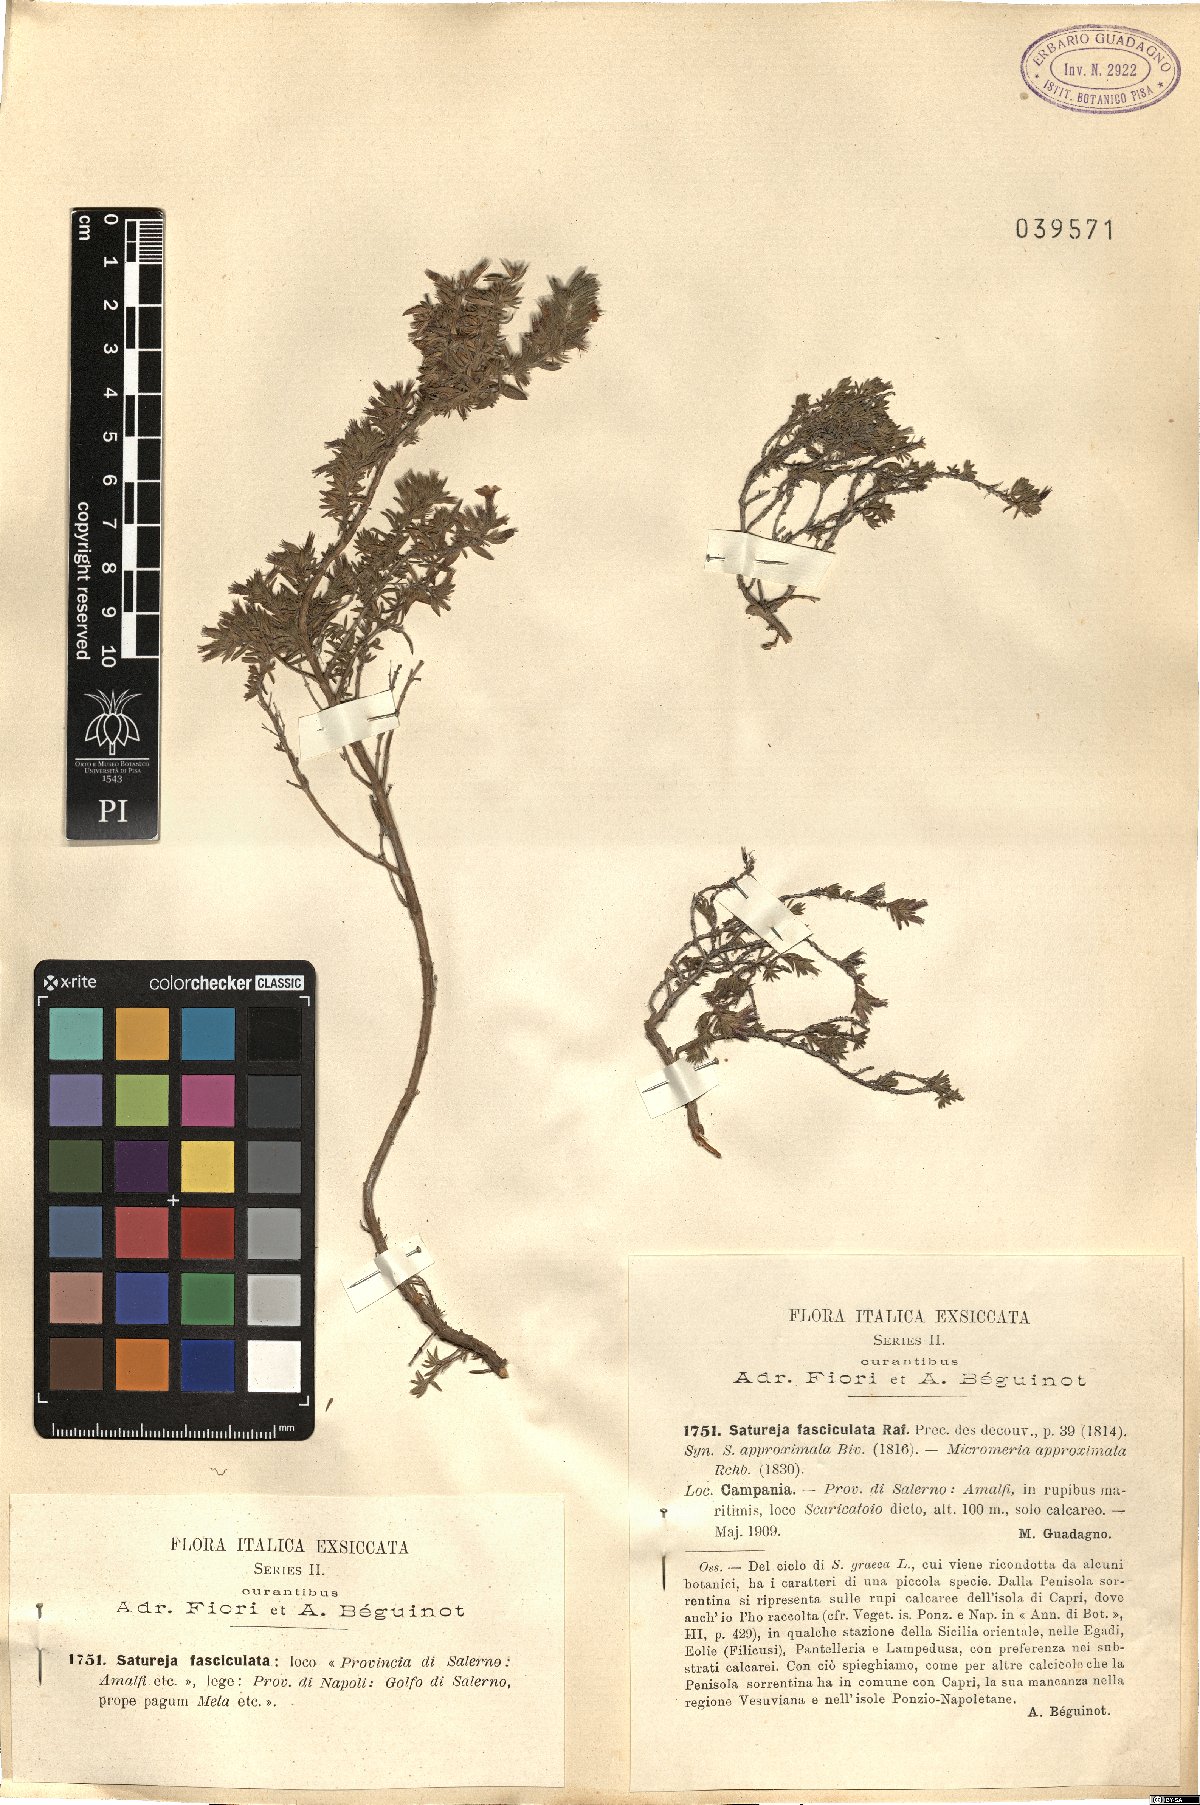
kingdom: Plantae
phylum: Tracheophyta
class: Magnoliopsida
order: Lamiales
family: Lamiaceae
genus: Micromeria
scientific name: Micromeria graeca
